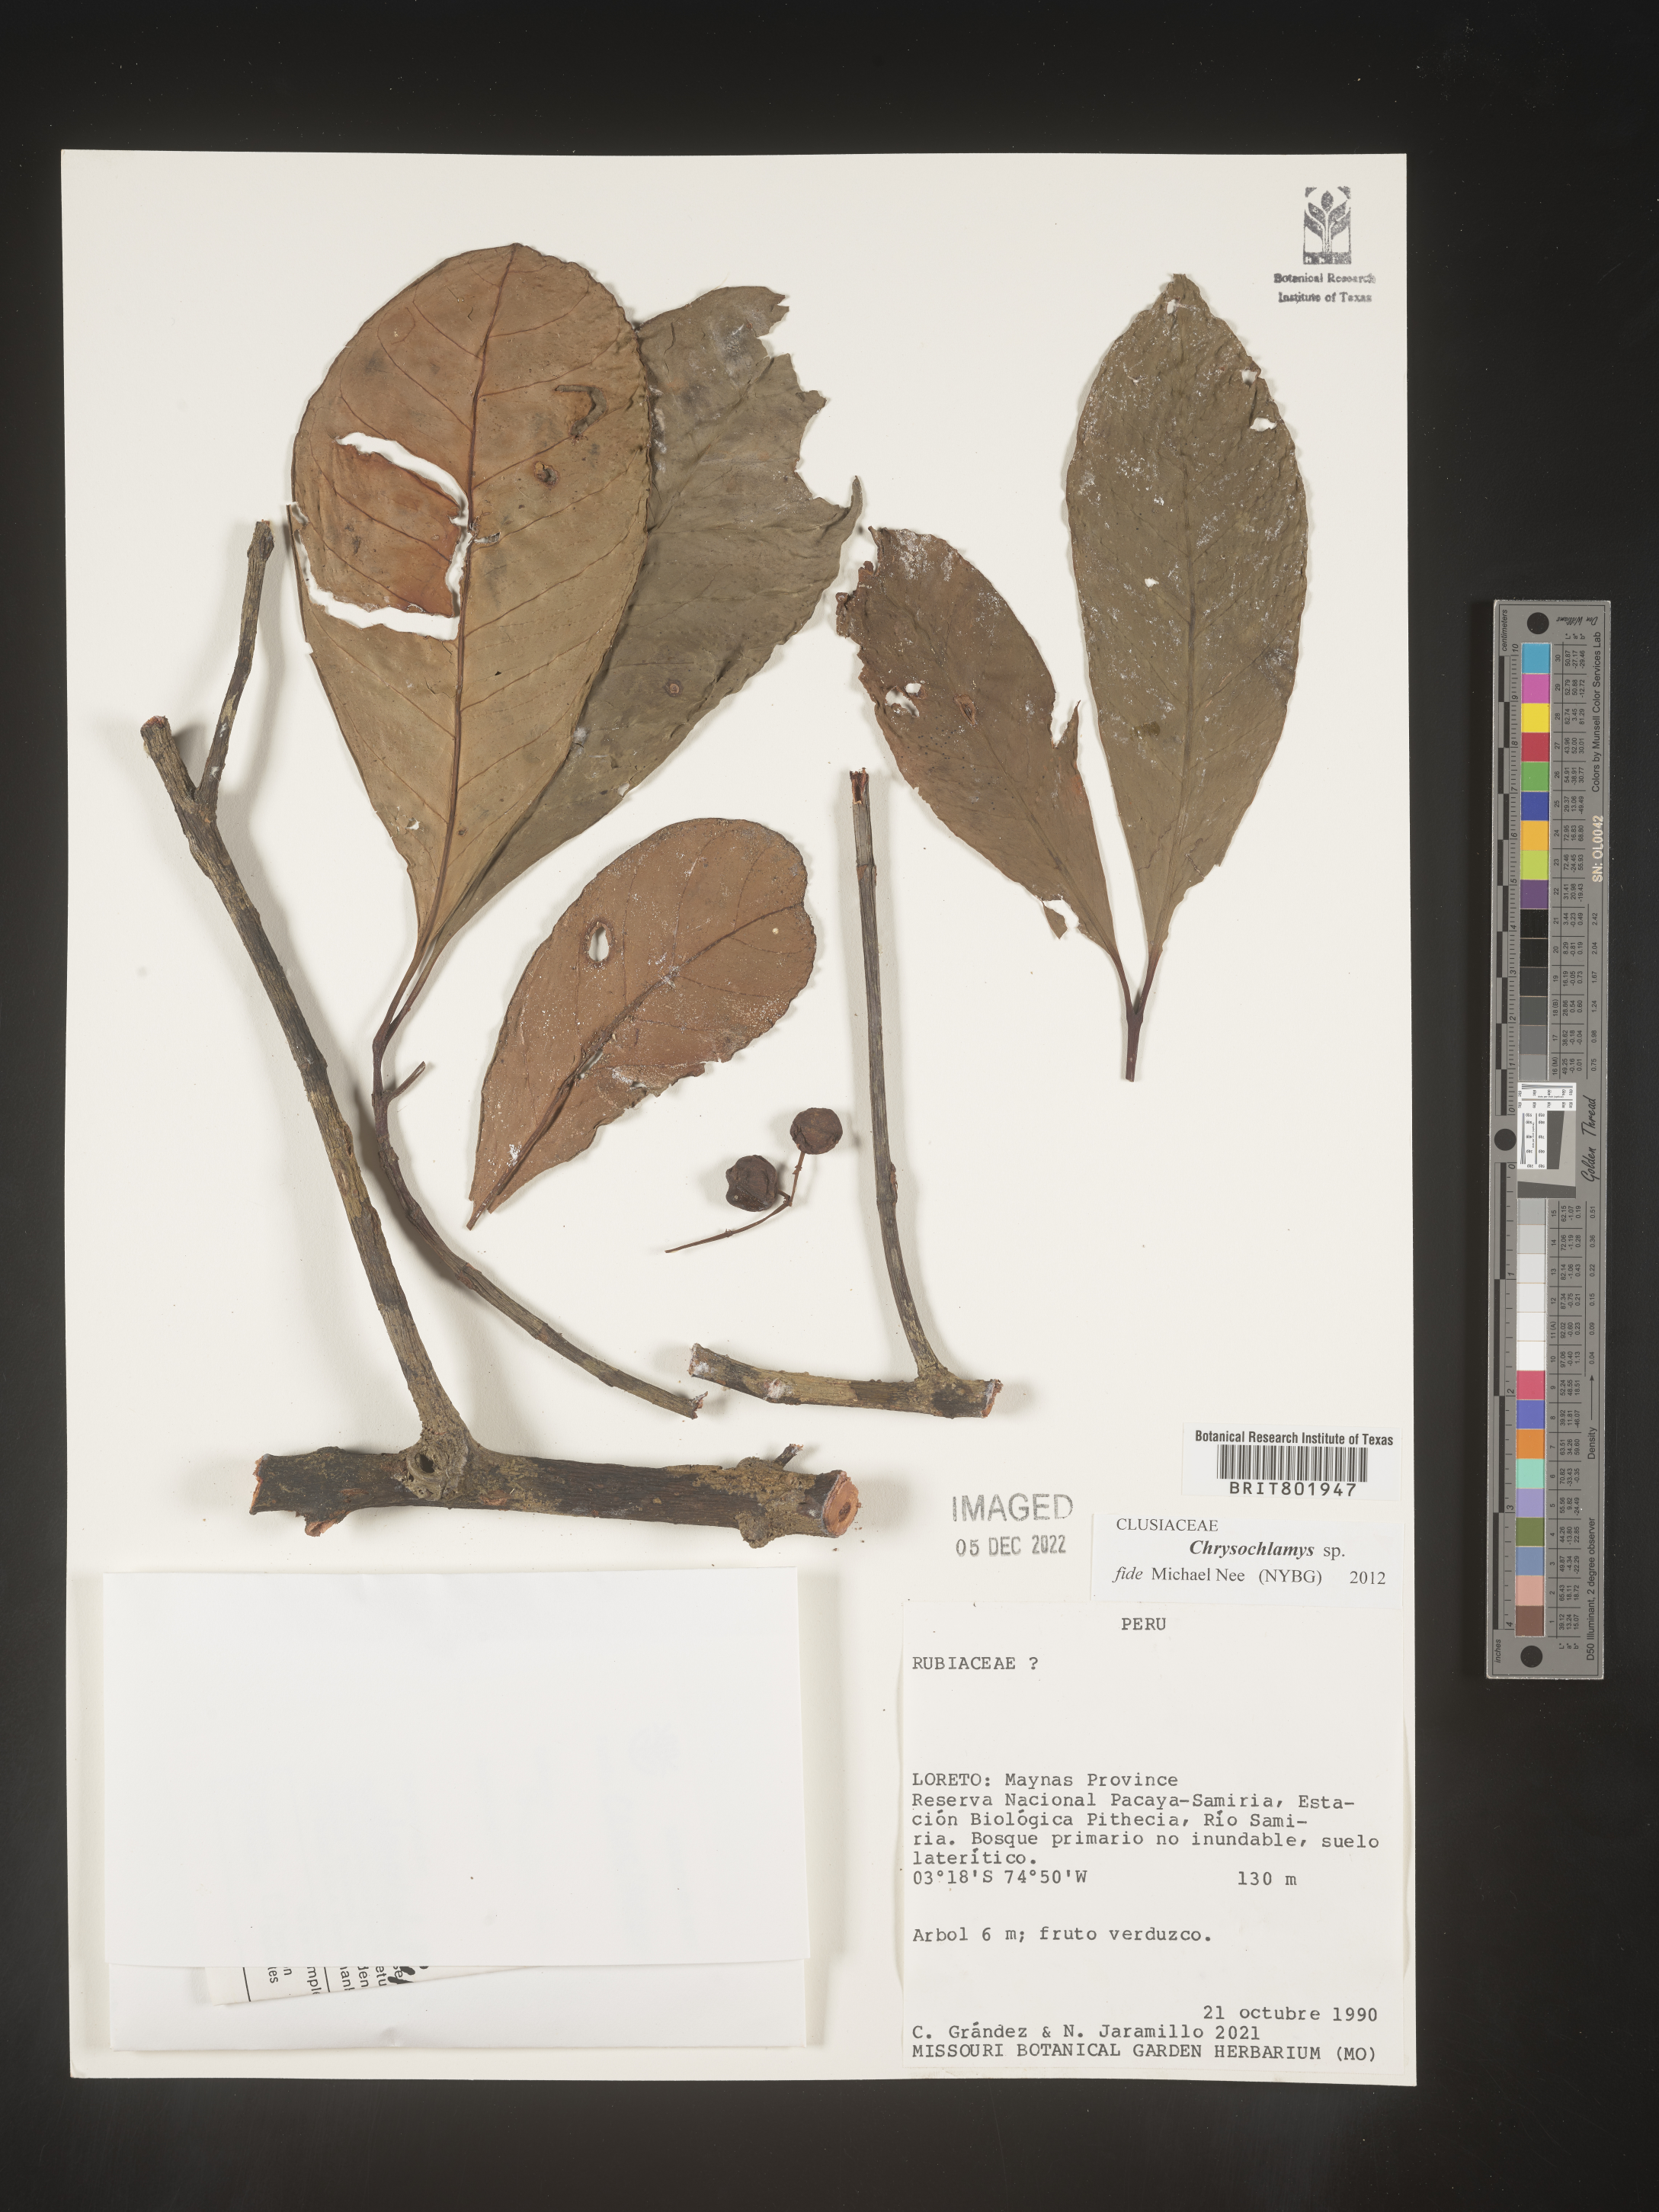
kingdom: Plantae
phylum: Tracheophyta
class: Magnoliopsida
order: Malpighiales
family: Clusiaceae
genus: Chrysochlamys
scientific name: Chrysochlamys
